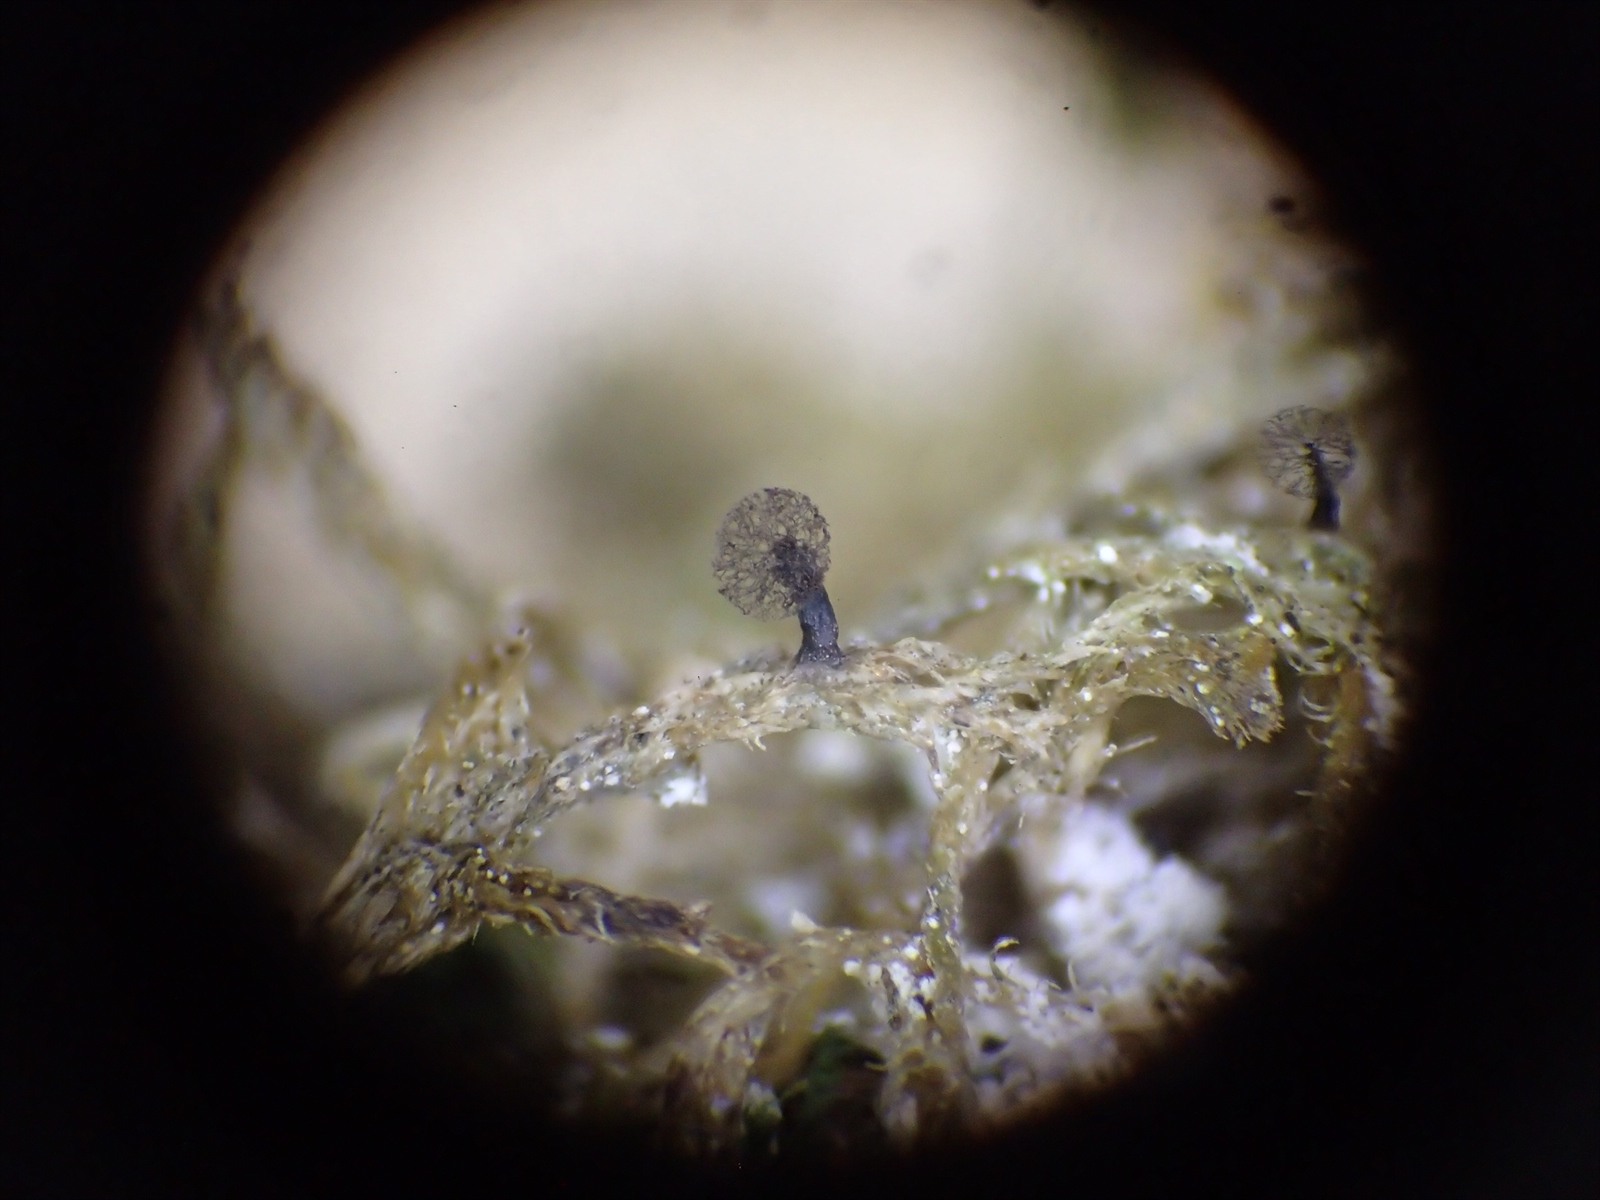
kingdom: Protozoa
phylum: Mycetozoa
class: Myxomycetes
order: Stemonitidales
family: Stemonitidaceae
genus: Comatricha
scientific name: Comatricha
